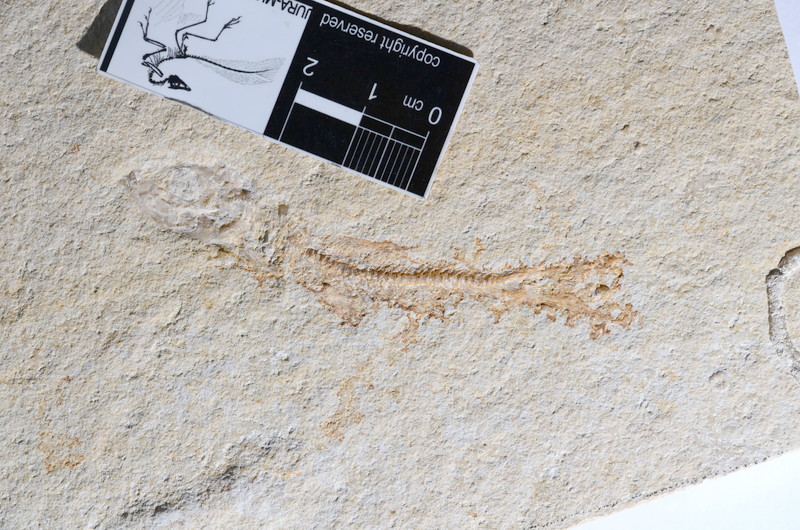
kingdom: Animalia
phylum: Chordata
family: Ascalaboidae
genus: Tharsis
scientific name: Tharsis dubius
